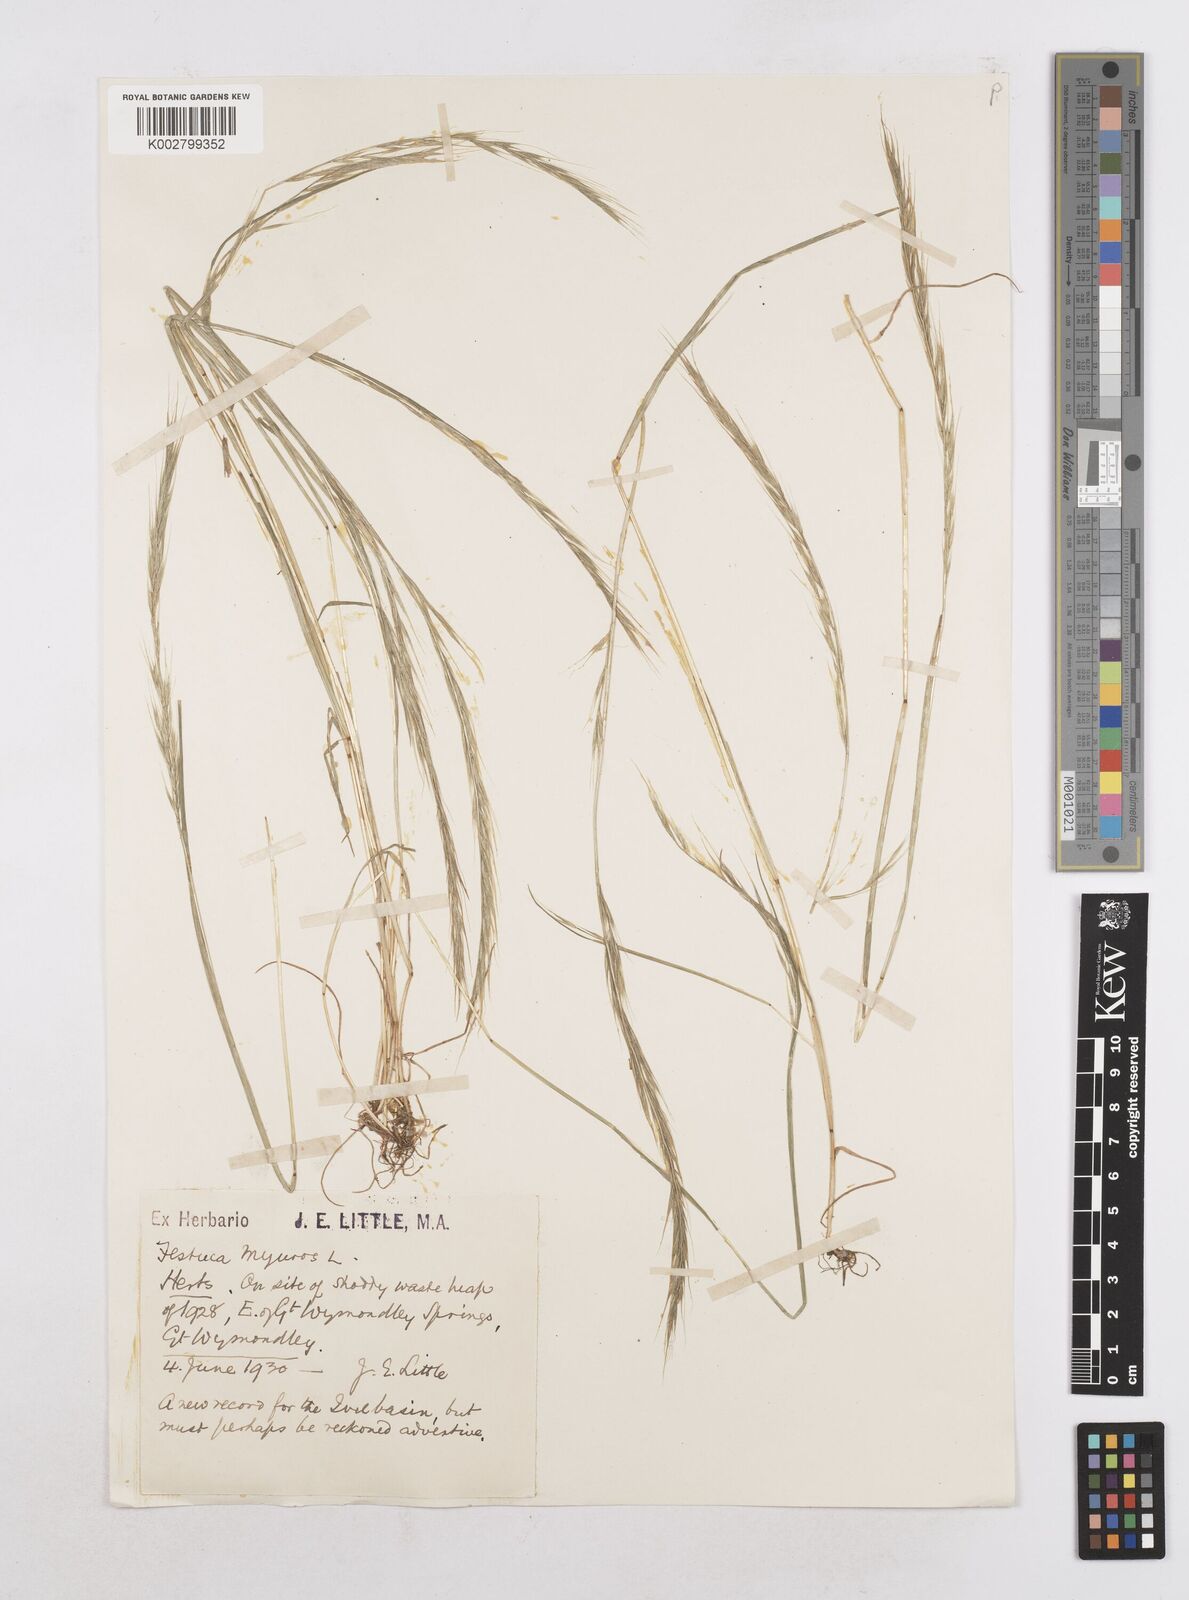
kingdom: Plantae
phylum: Tracheophyta
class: Liliopsida
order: Poales
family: Poaceae
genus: Festuca
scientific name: Festuca myuros
